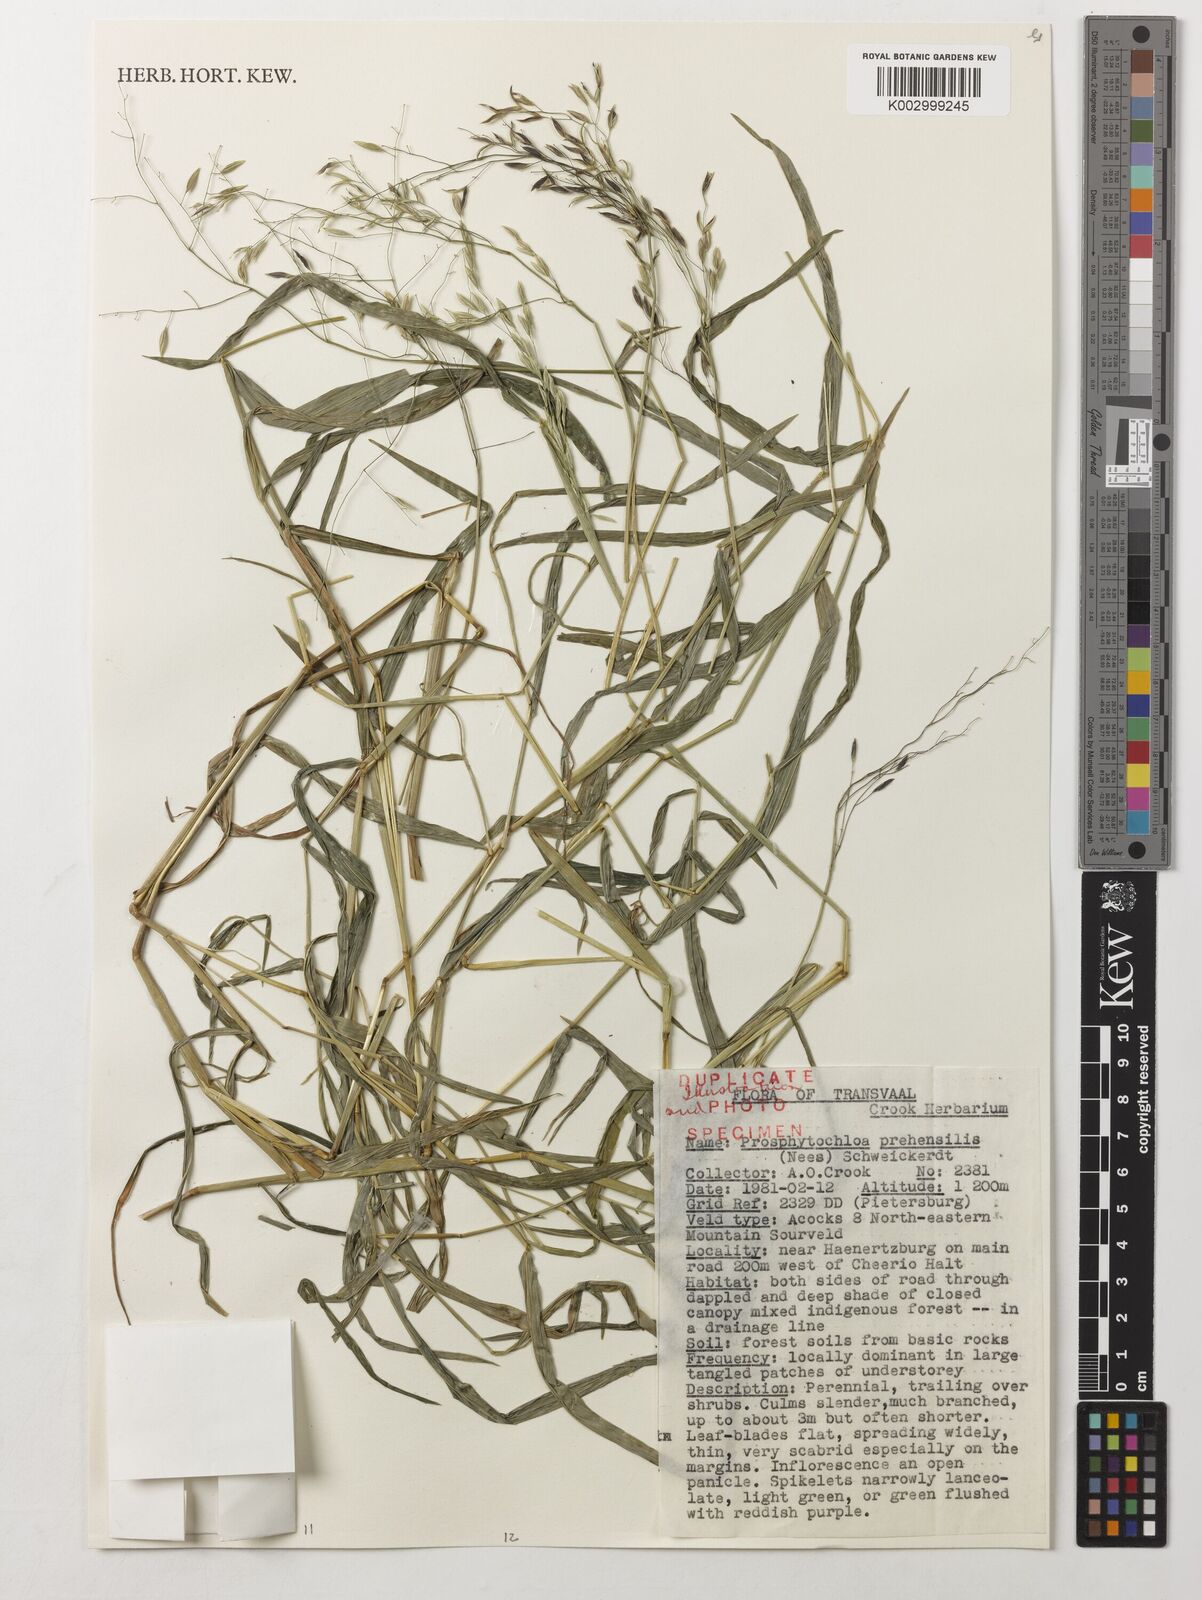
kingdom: Plantae
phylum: Tracheophyta
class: Liliopsida
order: Poales
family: Poaceae
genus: Prosphytochloa
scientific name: Prosphytochloa prehensilis
